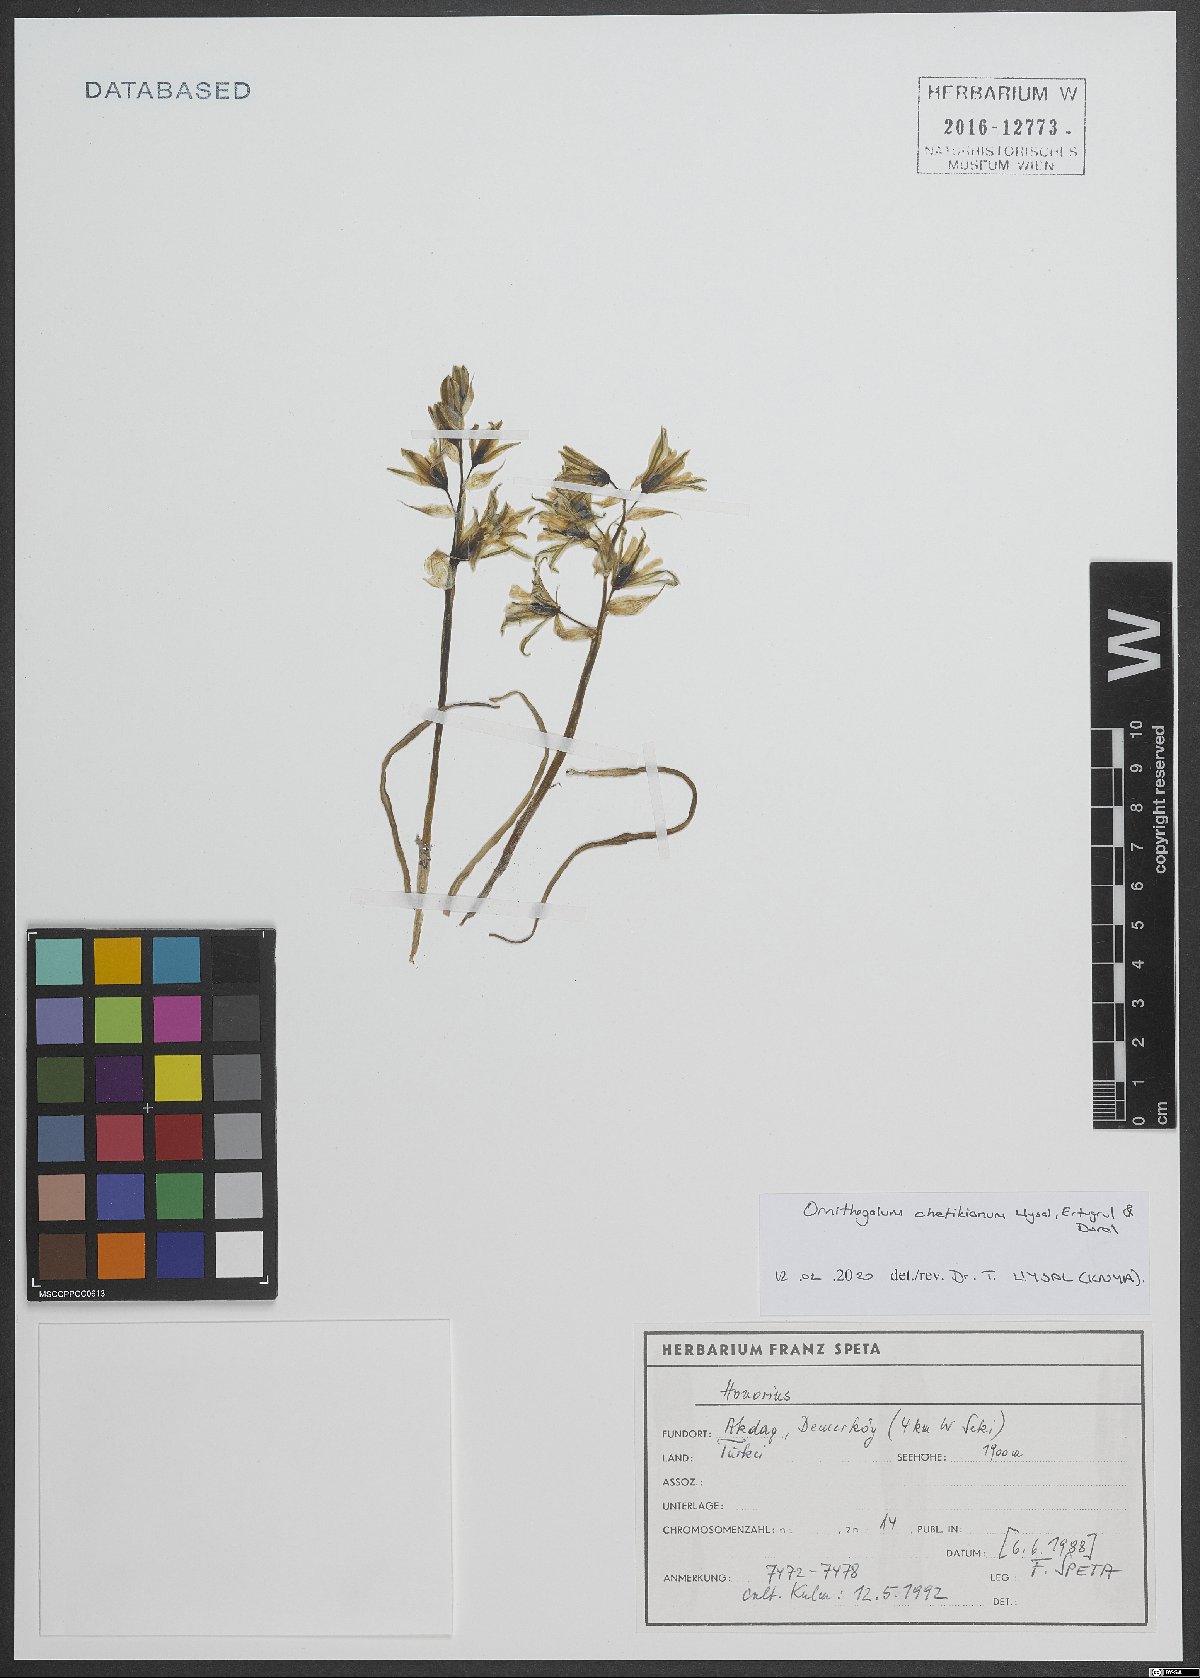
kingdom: Plantae
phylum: Tracheophyta
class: Liliopsida
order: Asparagales
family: Asparagaceae
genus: Ornithogalum
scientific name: Ornithogalum chetikianum
